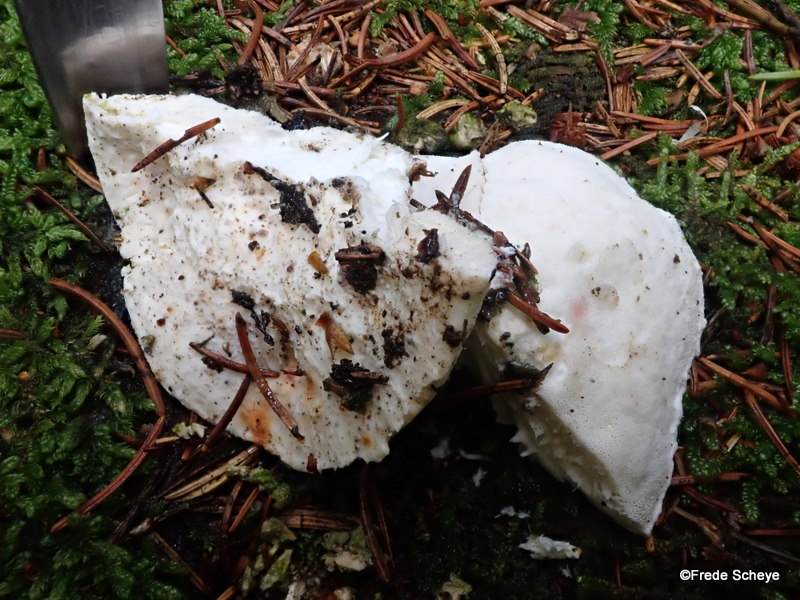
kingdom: Fungi
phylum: Basidiomycota
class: Agaricomycetes
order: Polyporales
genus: Amaropostia
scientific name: Amaropostia stiptica
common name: bitter kødporesvamp
